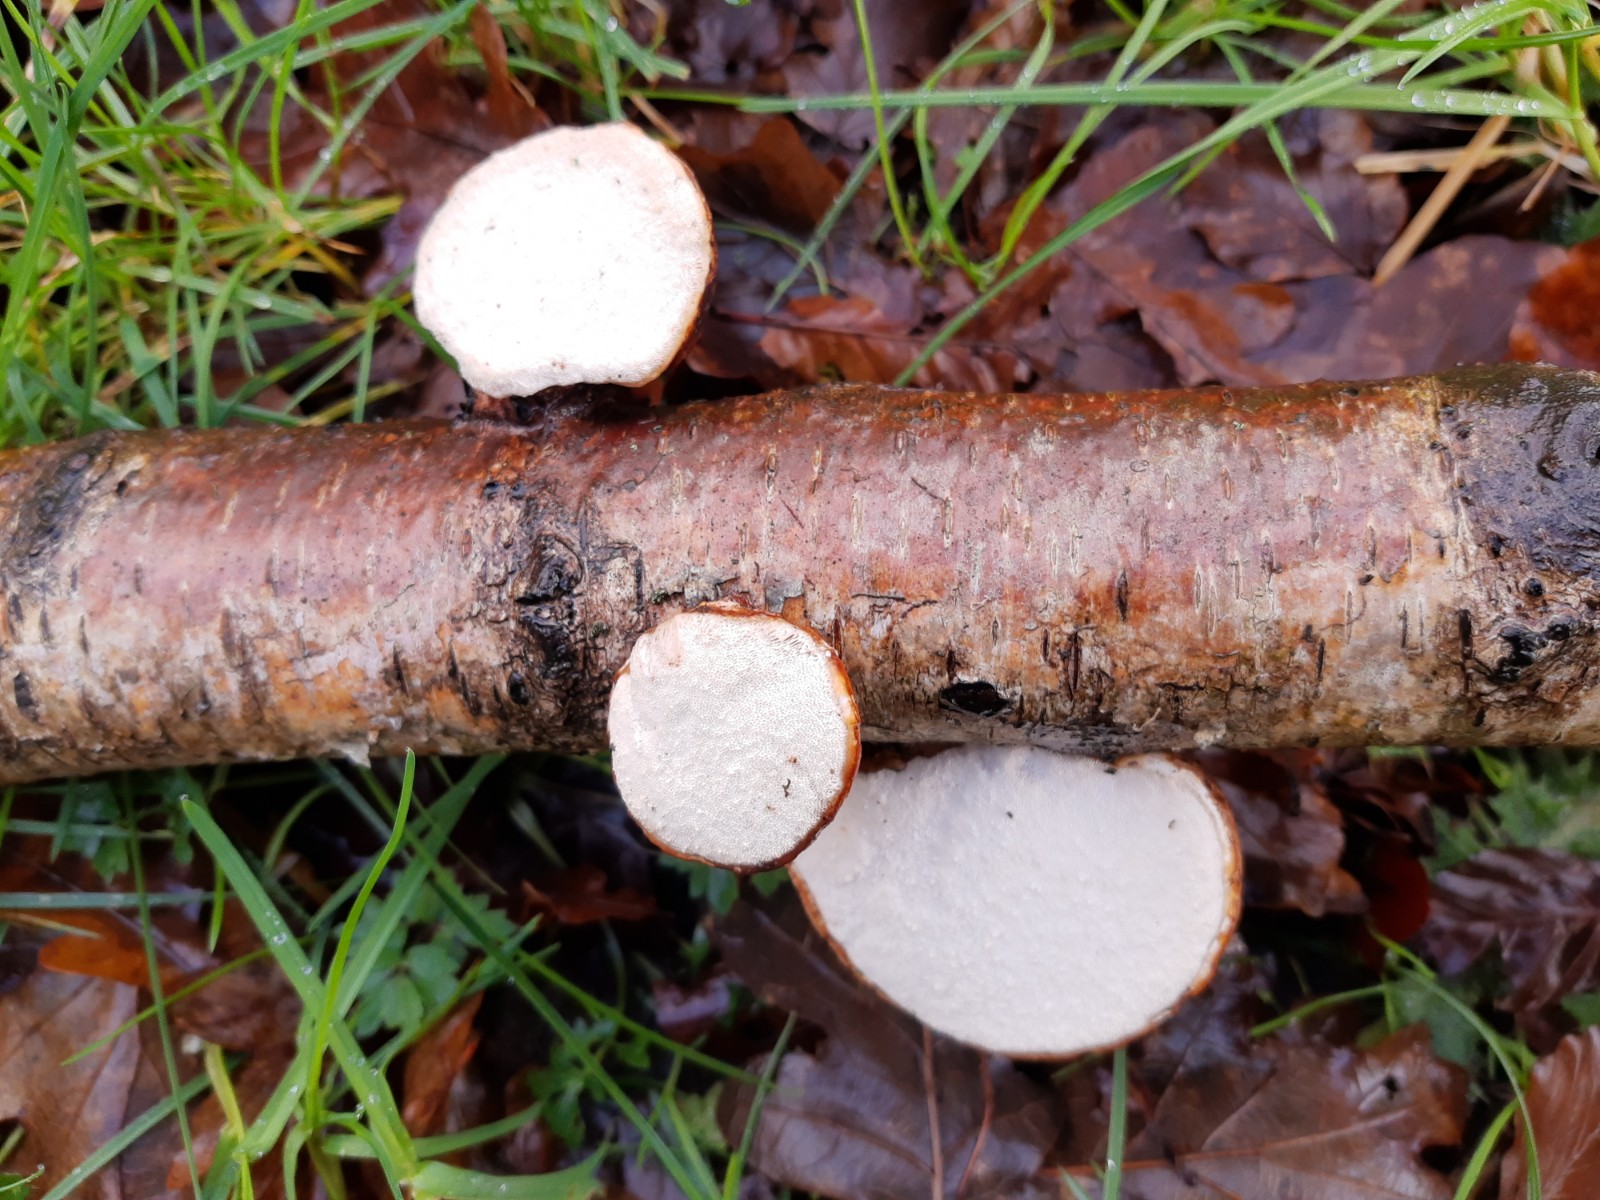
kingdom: Fungi
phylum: Basidiomycota
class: Agaricomycetes
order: Polyporales
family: Fomitopsidaceae
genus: Fomitopsis
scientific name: Fomitopsis betulina
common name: birkeporesvamp
